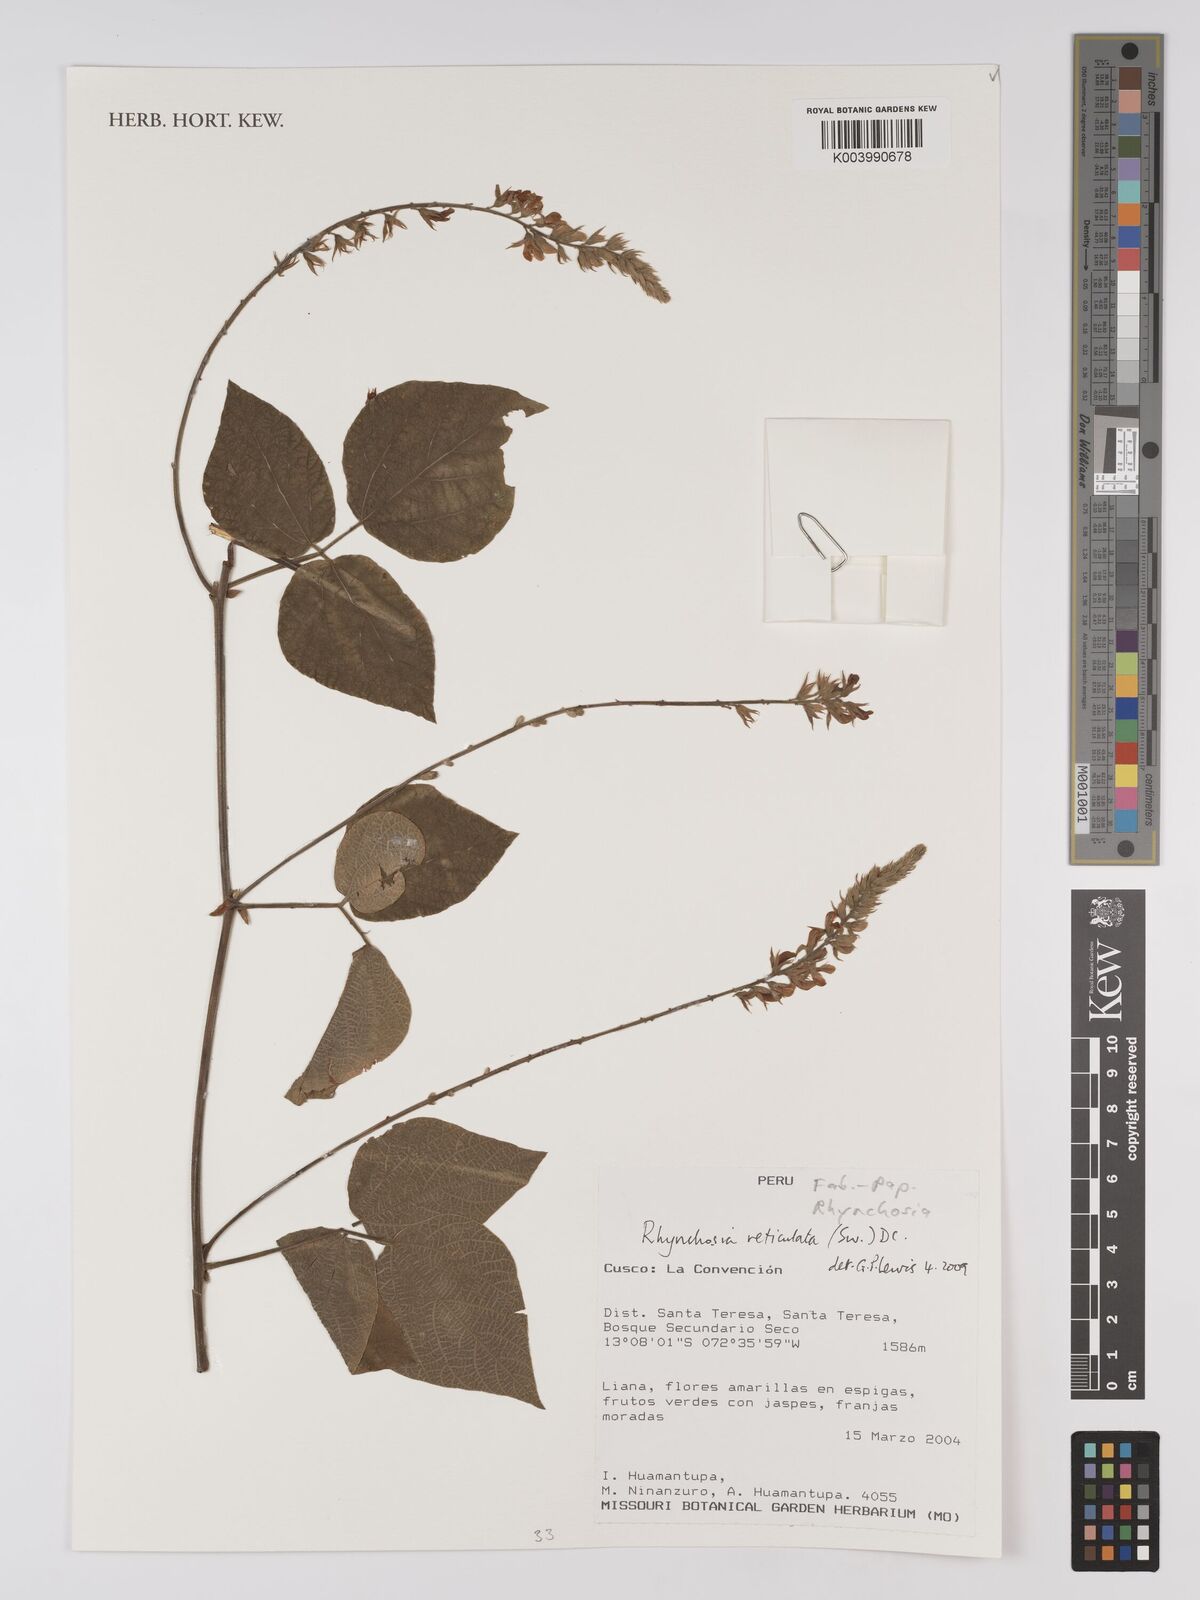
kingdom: Plantae
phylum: Tracheophyta
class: Magnoliopsida
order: Fabales
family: Fabaceae
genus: Rhynchosia
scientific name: Rhynchosia reticulata
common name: Pea withe
